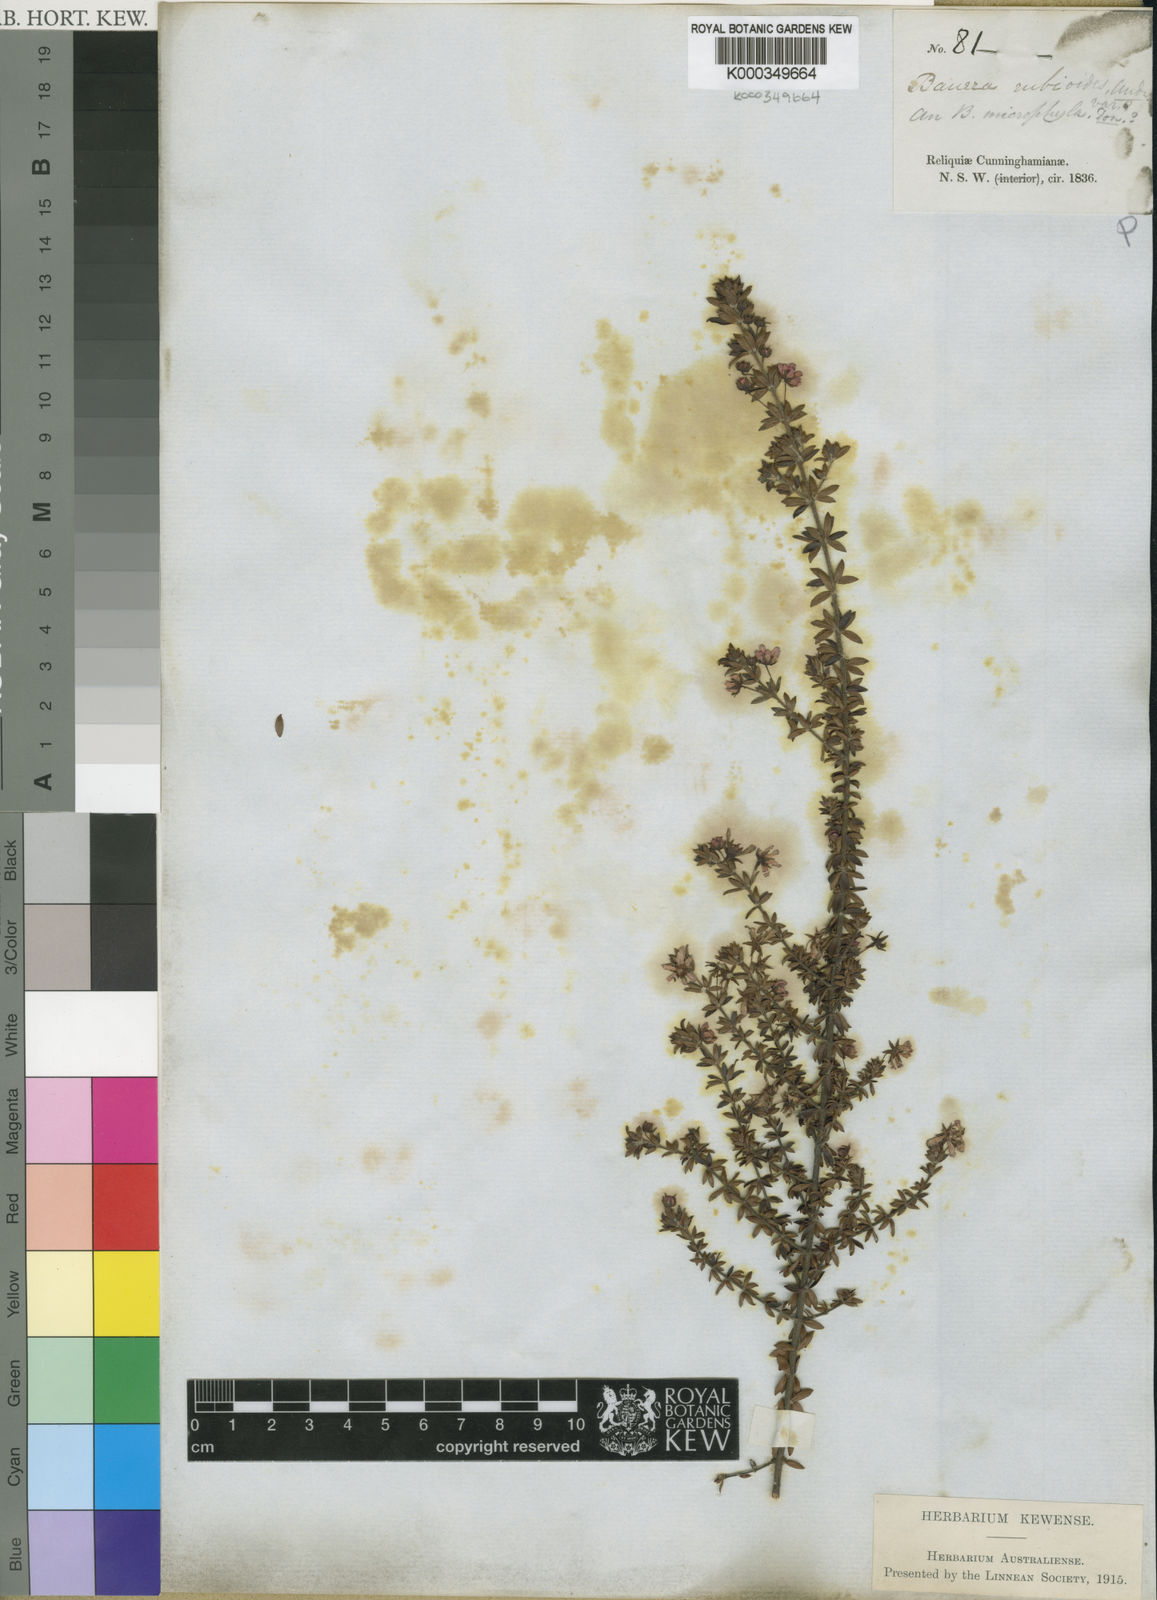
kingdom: Plantae
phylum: Tracheophyta
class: Magnoliopsida
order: Oxalidales
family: Cunoniaceae
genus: Bauera
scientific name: Bauera microphylla
